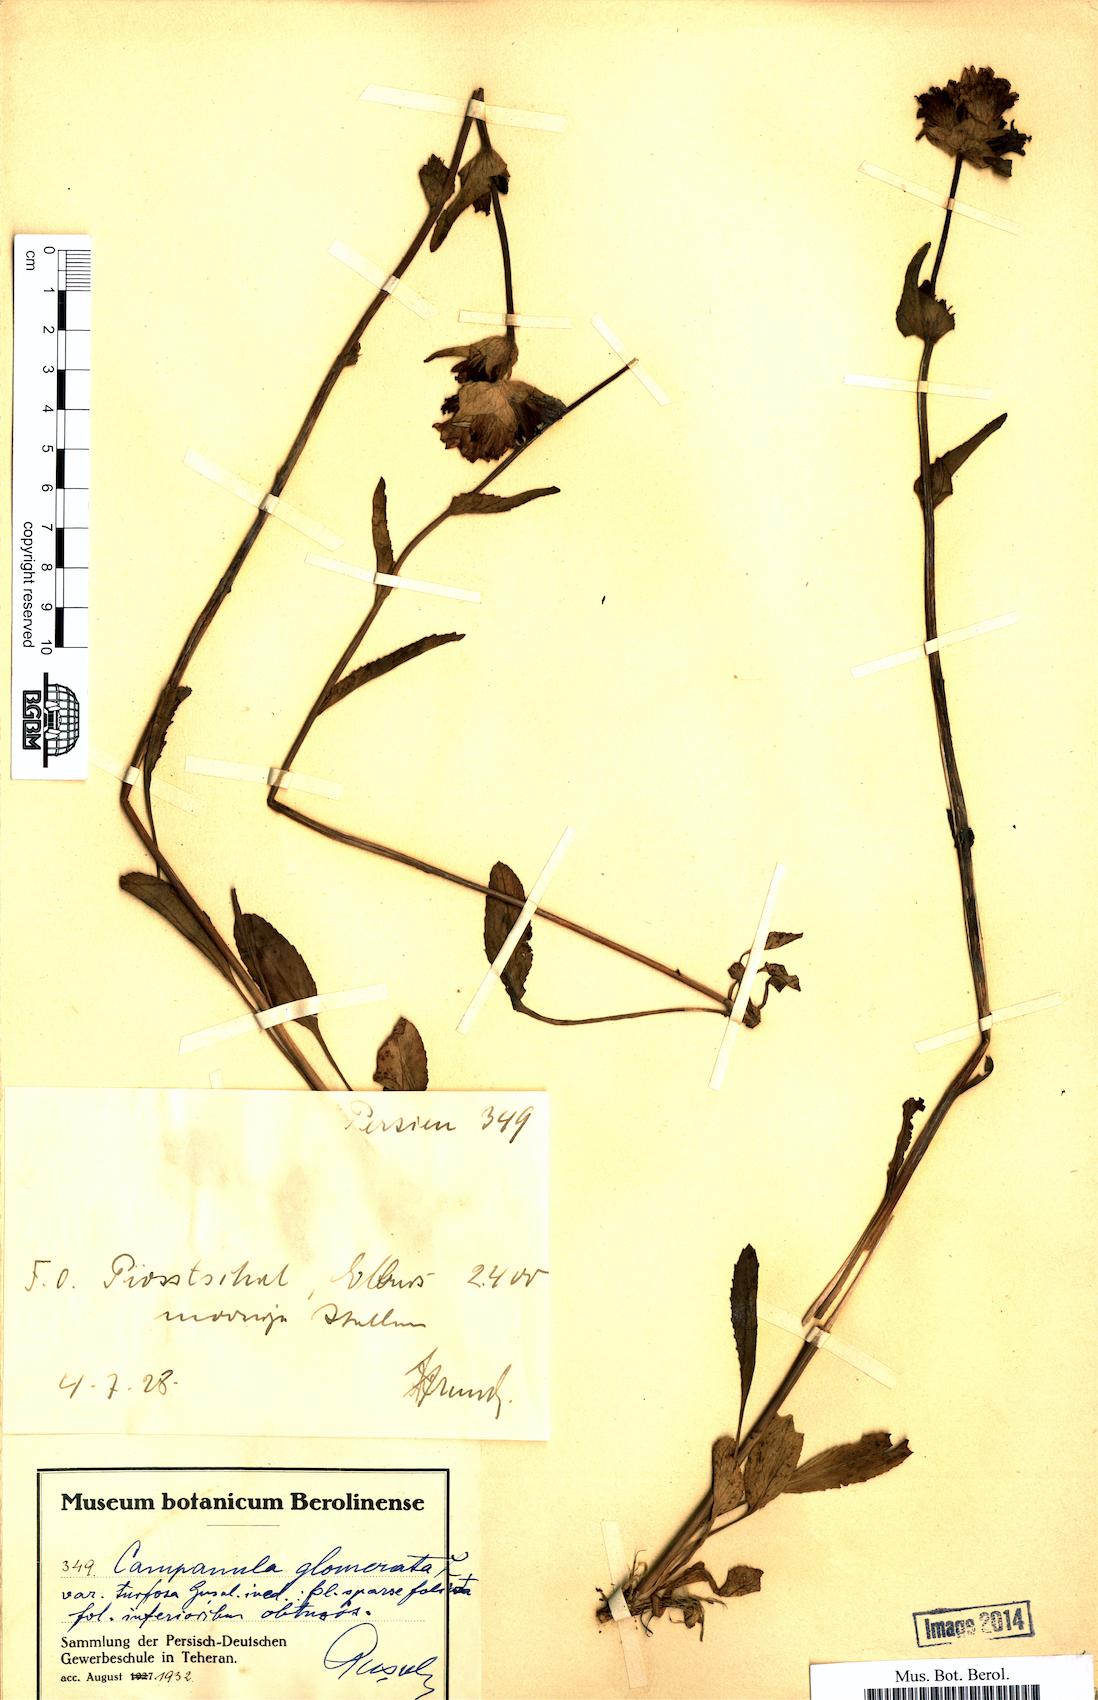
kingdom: Plantae
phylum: Tracheophyta
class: Magnoliopsida
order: Asterales
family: Campanulaceae
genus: Campanula
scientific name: Campanula glomerata
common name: Clustered bellflower
